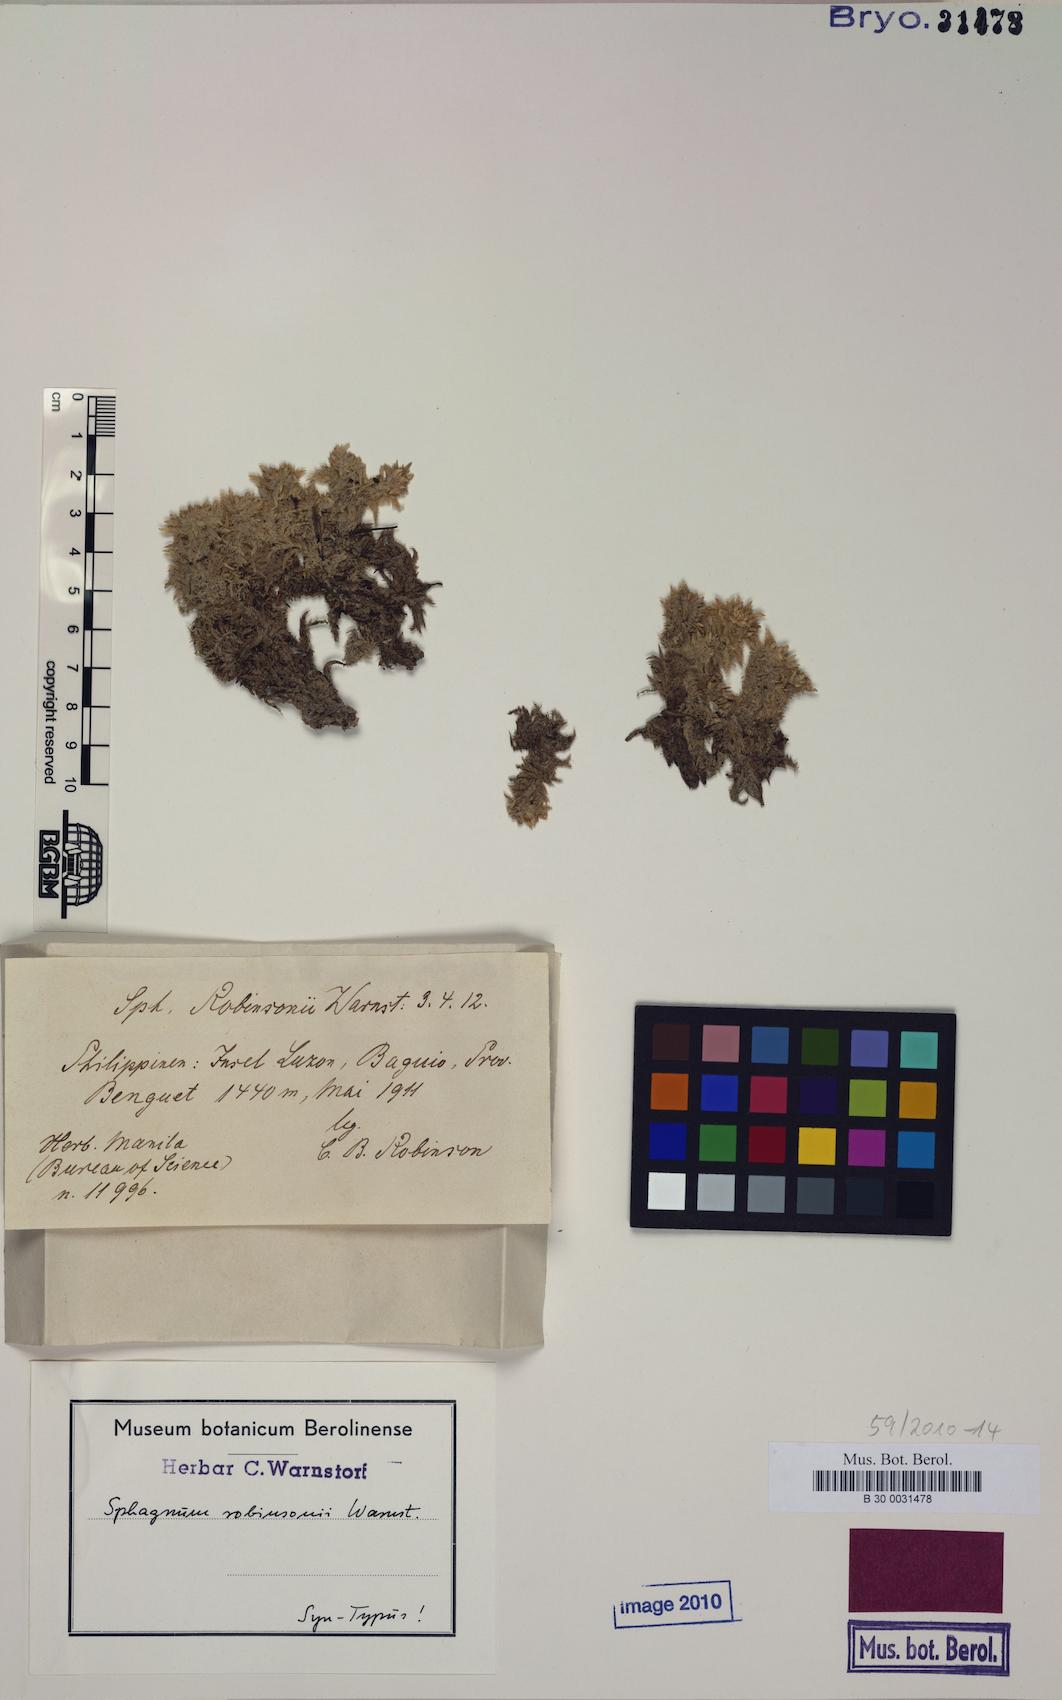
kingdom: Plantae
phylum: Bryophyta
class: Sphagnopsida
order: Sphagnales
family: Sphagnaceae
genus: Sphagnum
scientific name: Sphagnum robinsonii
